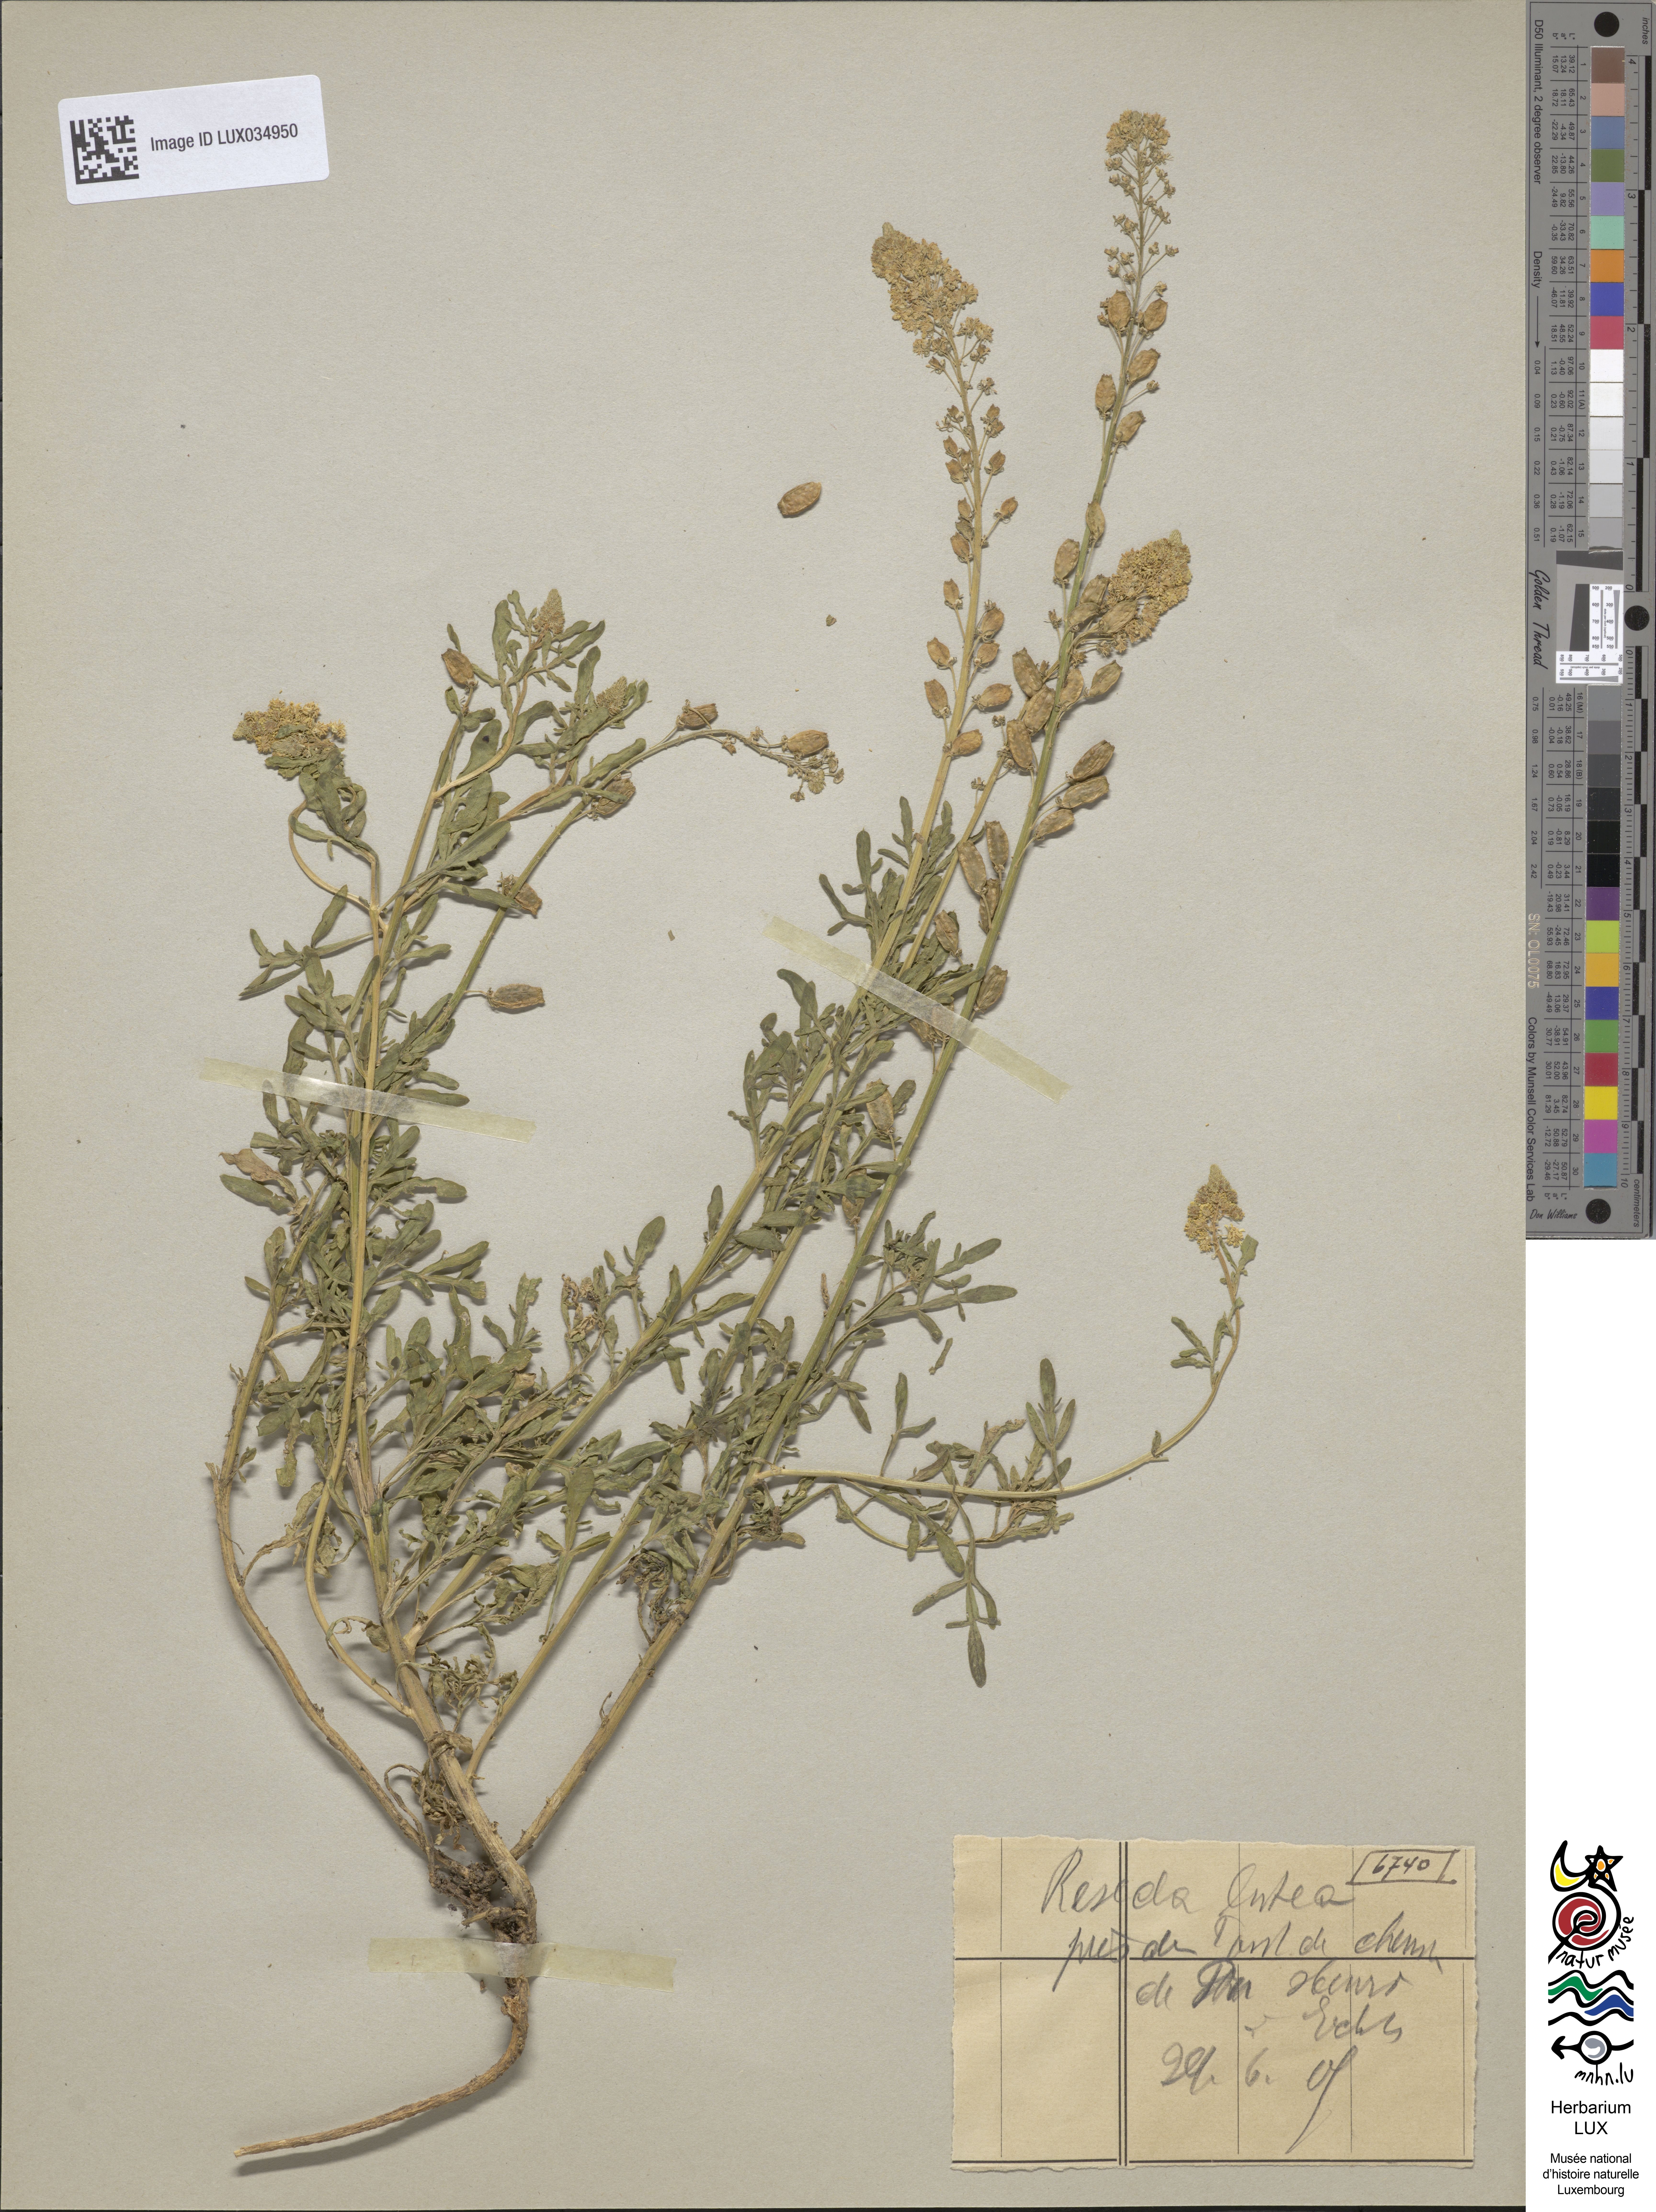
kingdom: Plantae
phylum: Tracheophyta
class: Magnoliopsida
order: Brassicales
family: Resedaceae
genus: Reseda
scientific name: Reseda lutea
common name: Wild mignonette
